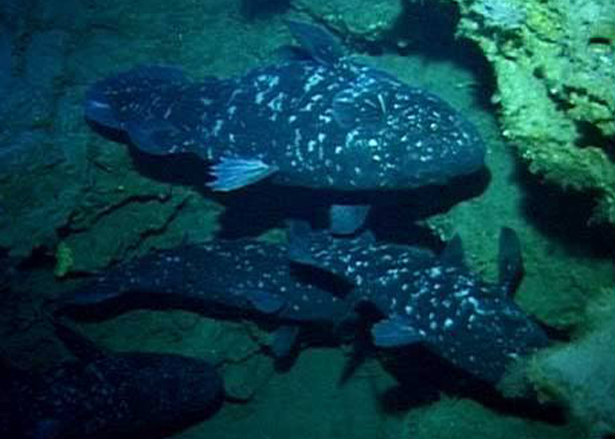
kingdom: Animalia
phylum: Chordata
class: Coelacanthi
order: Coelacanthiformes
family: Latimeriidae
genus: Latimeria
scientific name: Latimeria chalumnae
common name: Coelacanth
